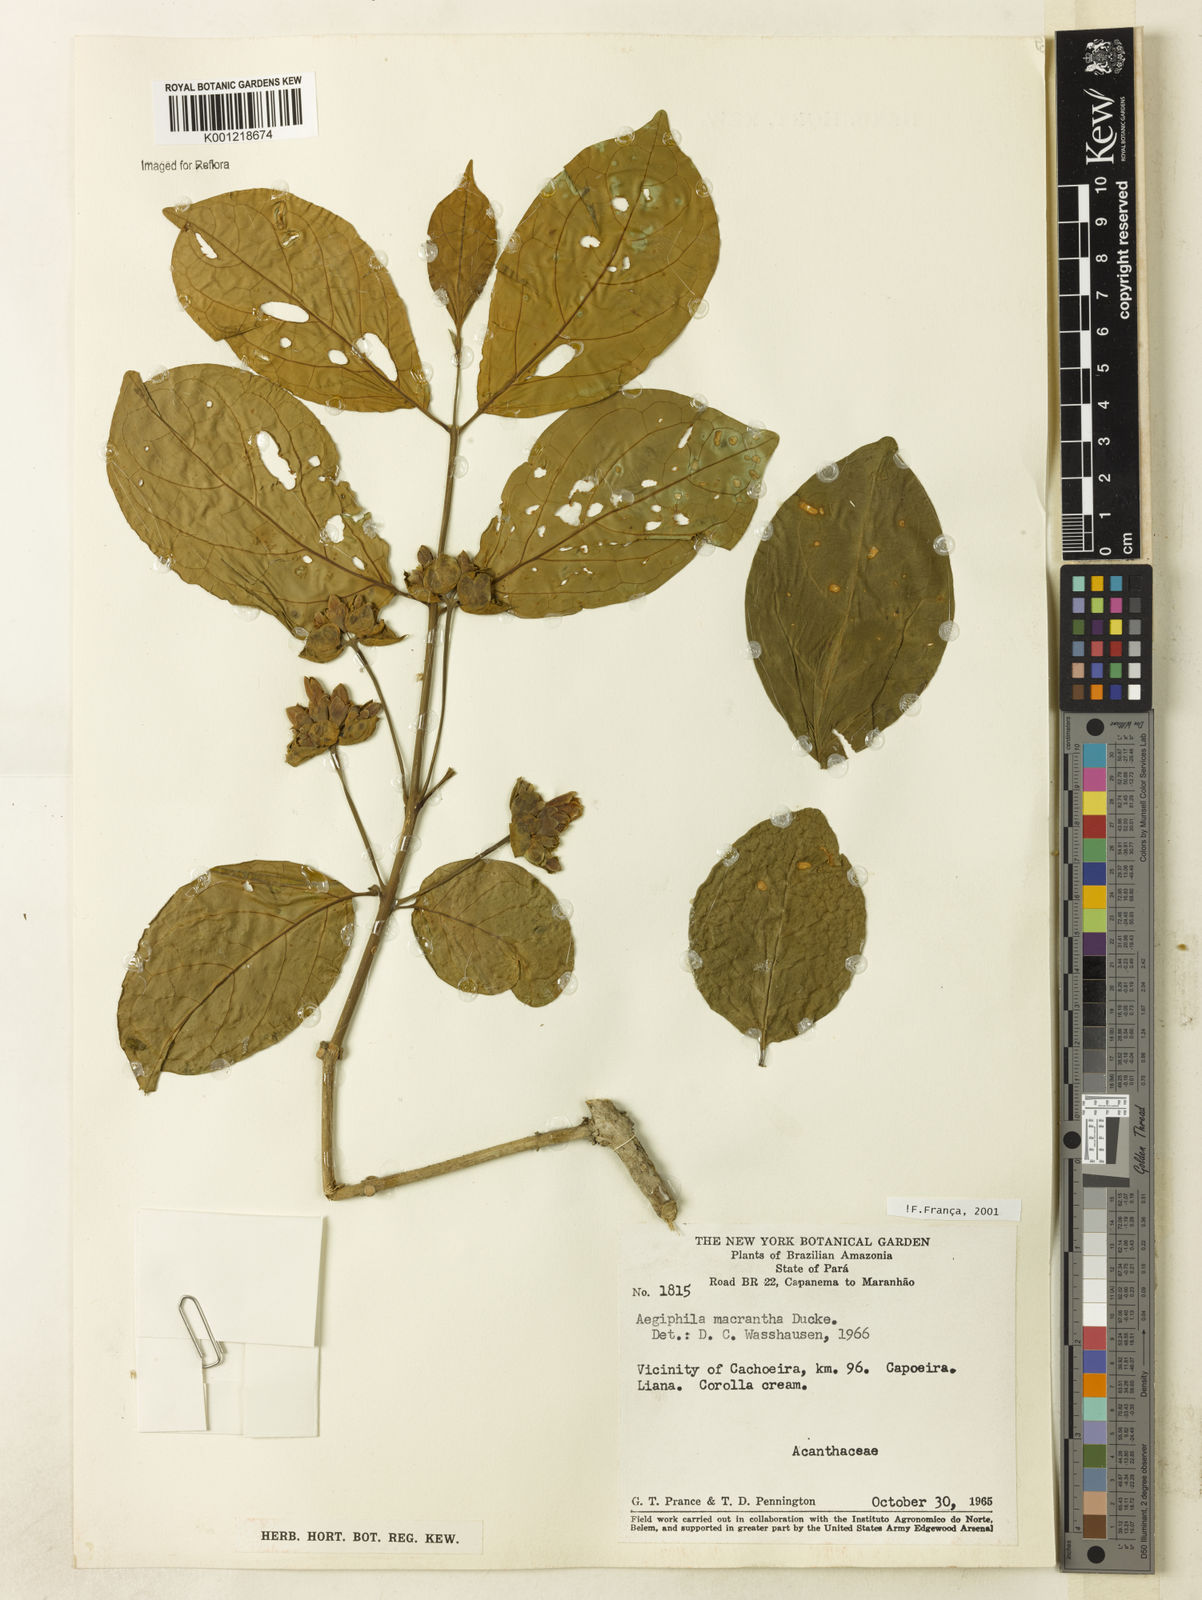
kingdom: Plantae
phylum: Tracheophyta
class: Magnoliopsida
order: Lamiales
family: Lamiaceae
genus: Aegiphila
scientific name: Aegiphila macrantha
